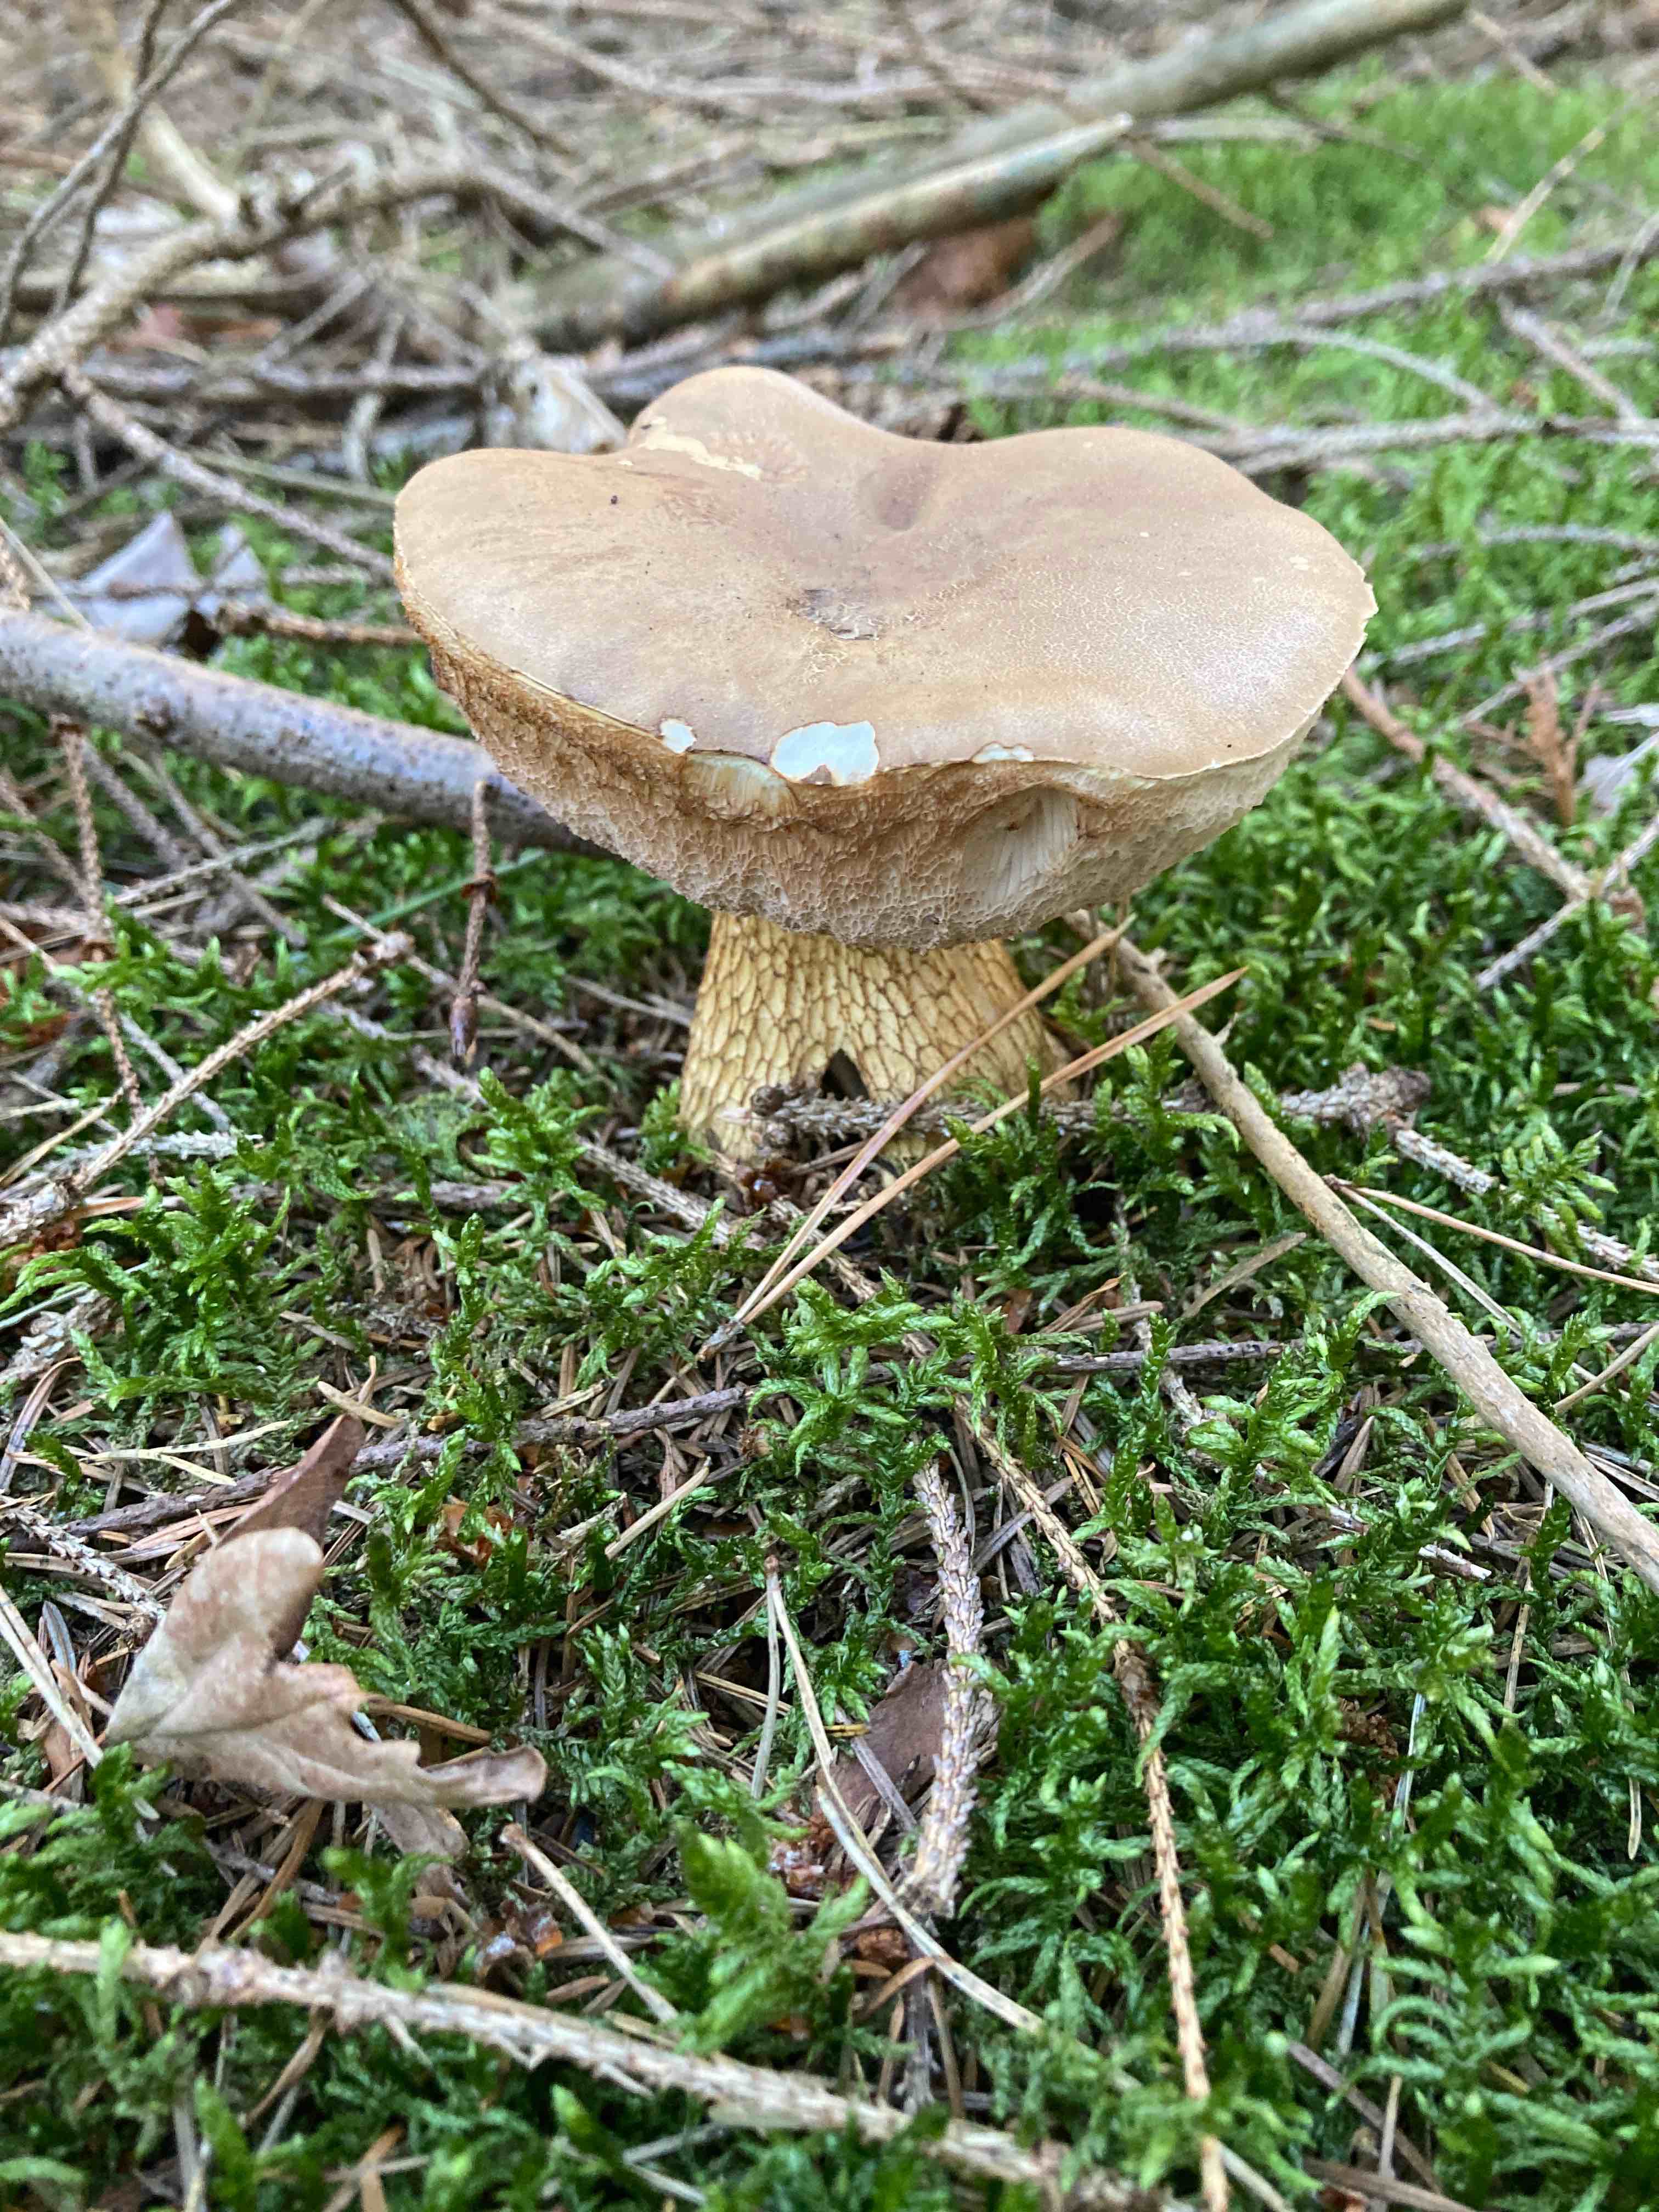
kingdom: Fungi
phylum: Basidiomycota
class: Agaricomycetes
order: Boletales
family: Boletaceae
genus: Tylopilus
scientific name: Tylopilus felleus
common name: galderørhat
